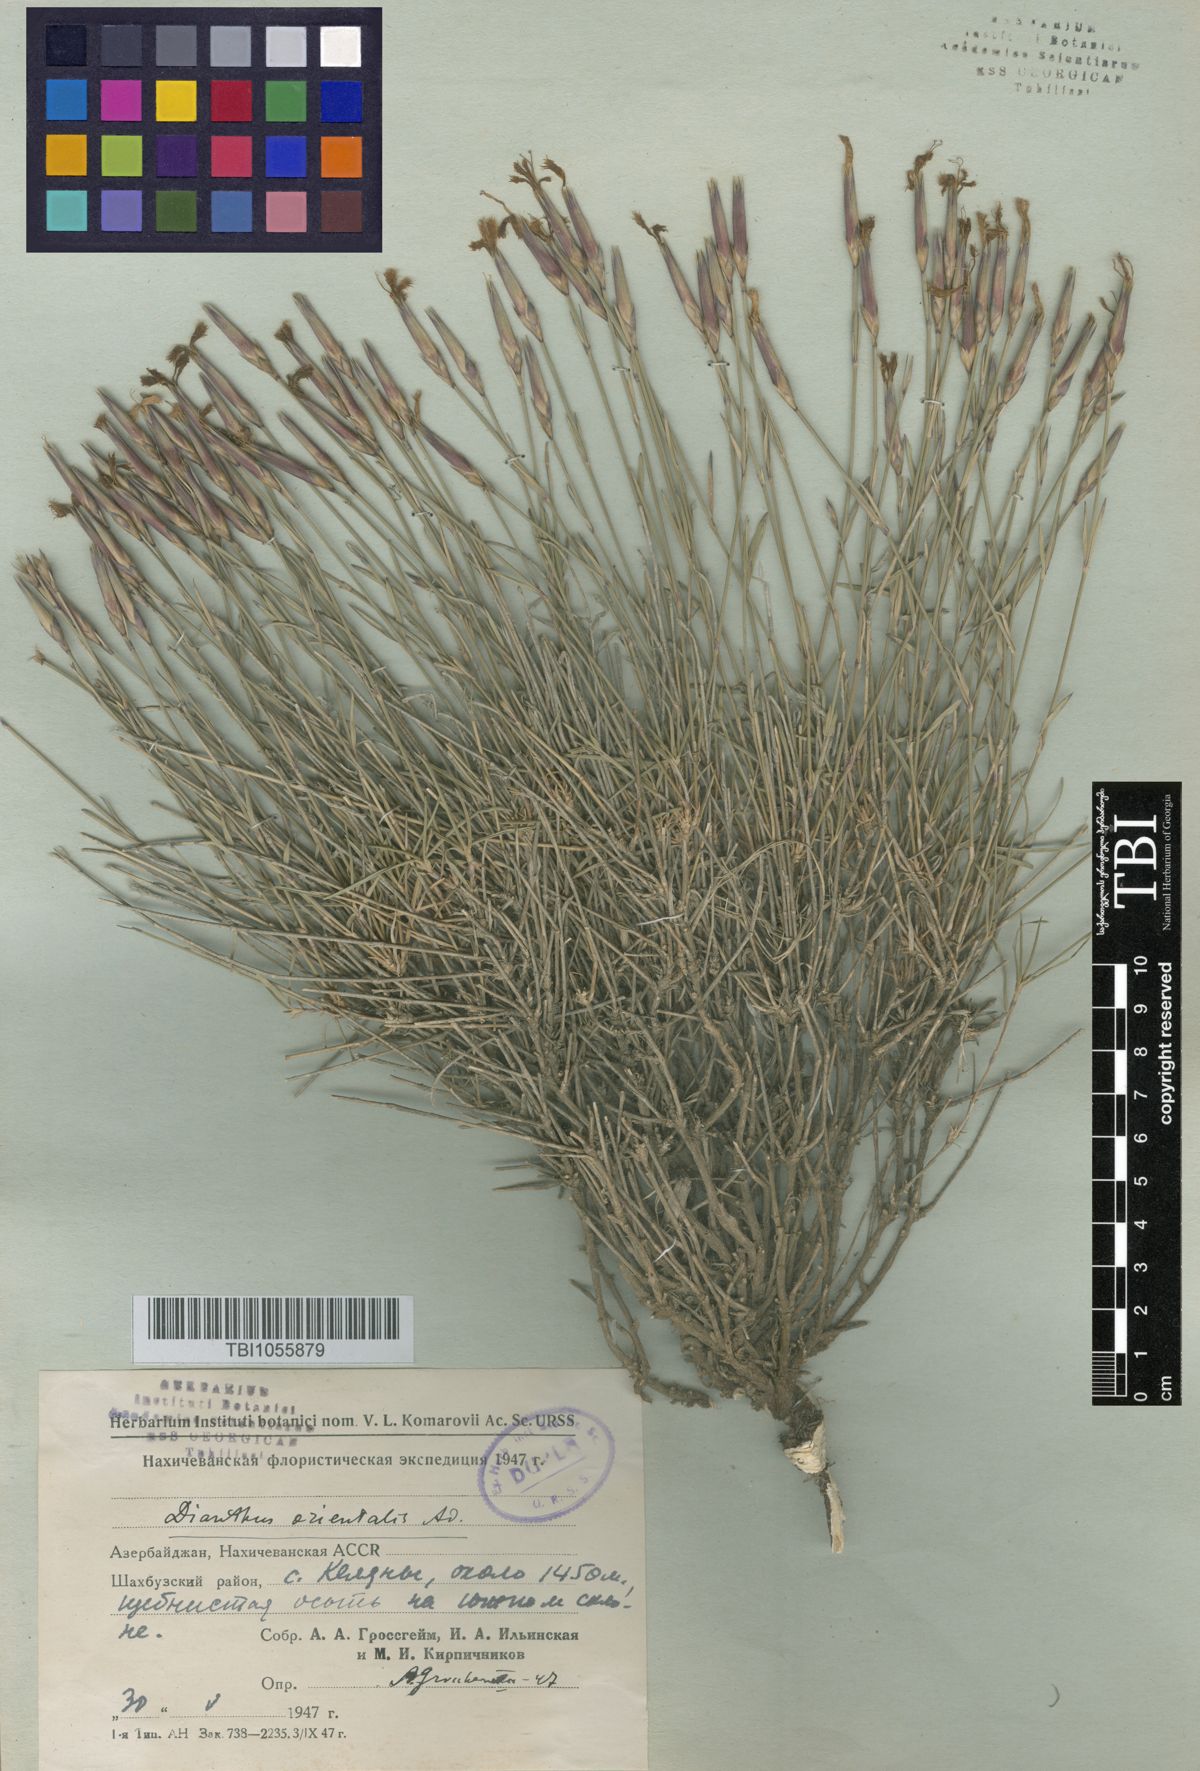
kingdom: Plantae
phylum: Tracheophyta
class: Magnoliopsida
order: Caryophyllales
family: Caryophyllaceae
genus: Dianthus
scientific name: Dianthus orientalis
